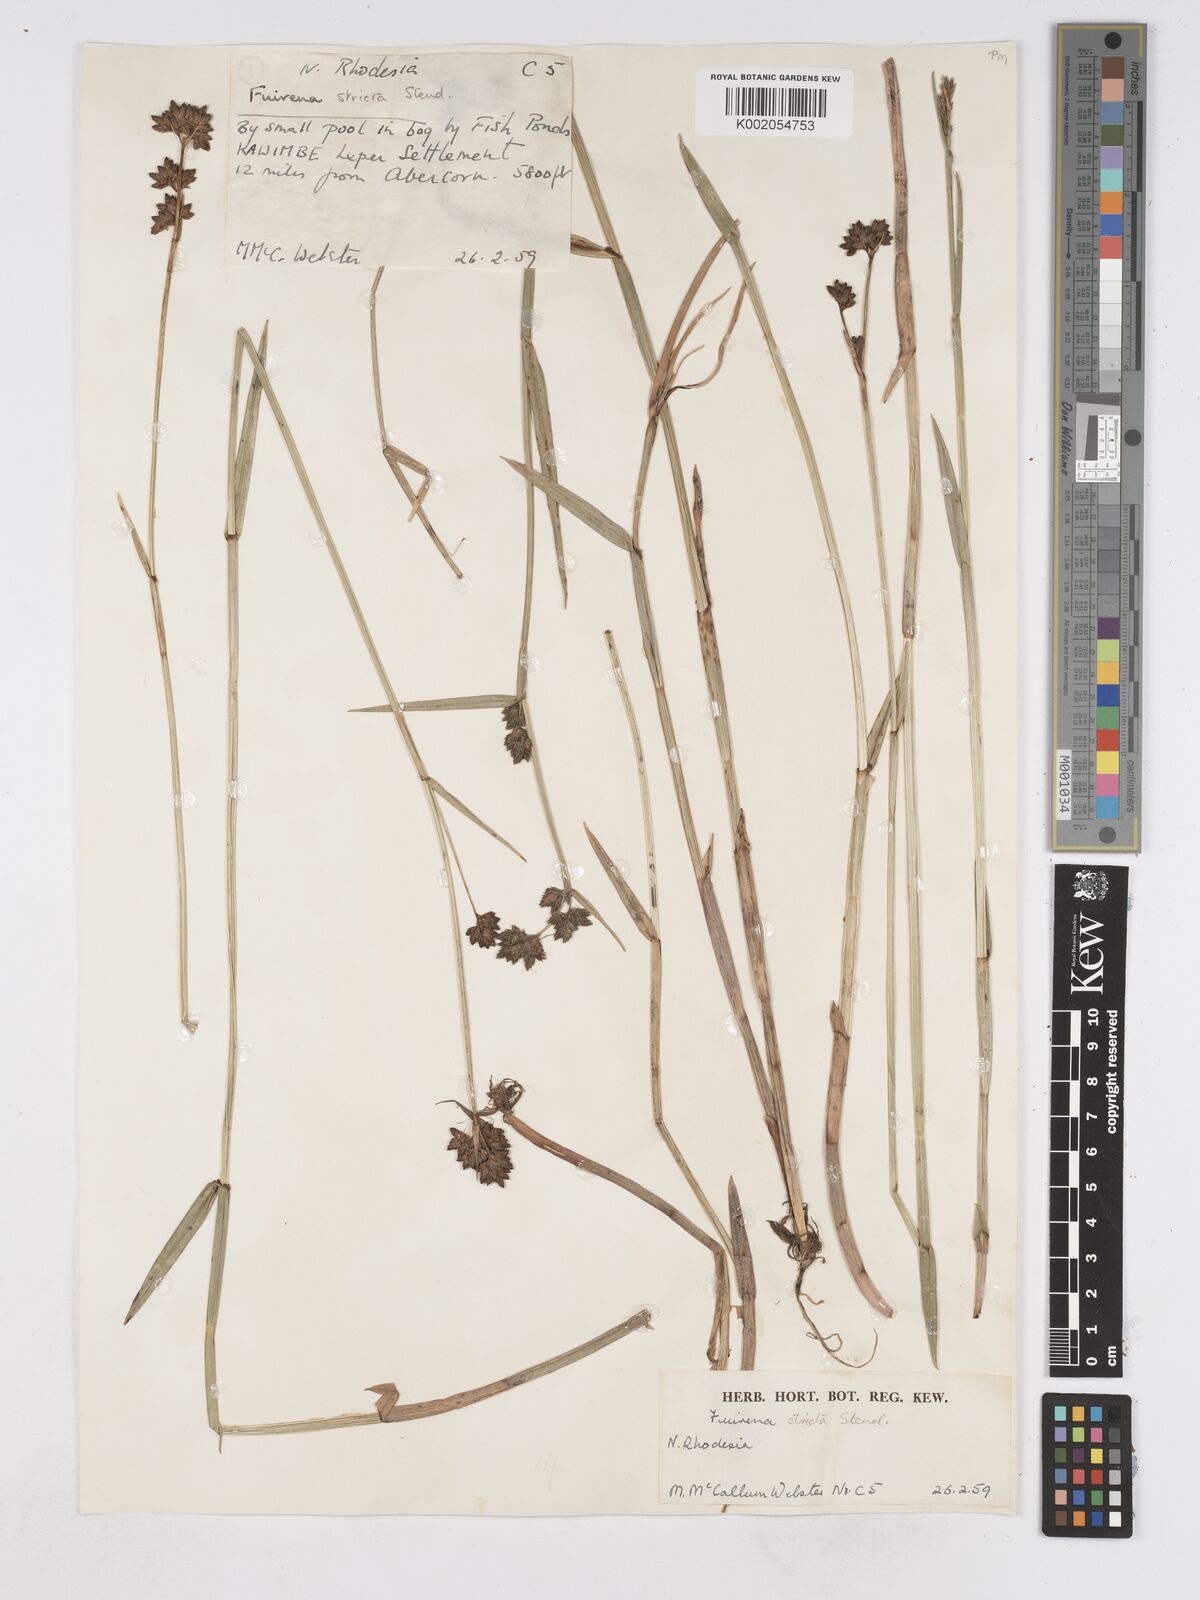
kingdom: Plantae
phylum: Tracheophyta
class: Liliopsida
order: Poales
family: Cyperaceae
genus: Fuirena
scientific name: Fuirena stricta
